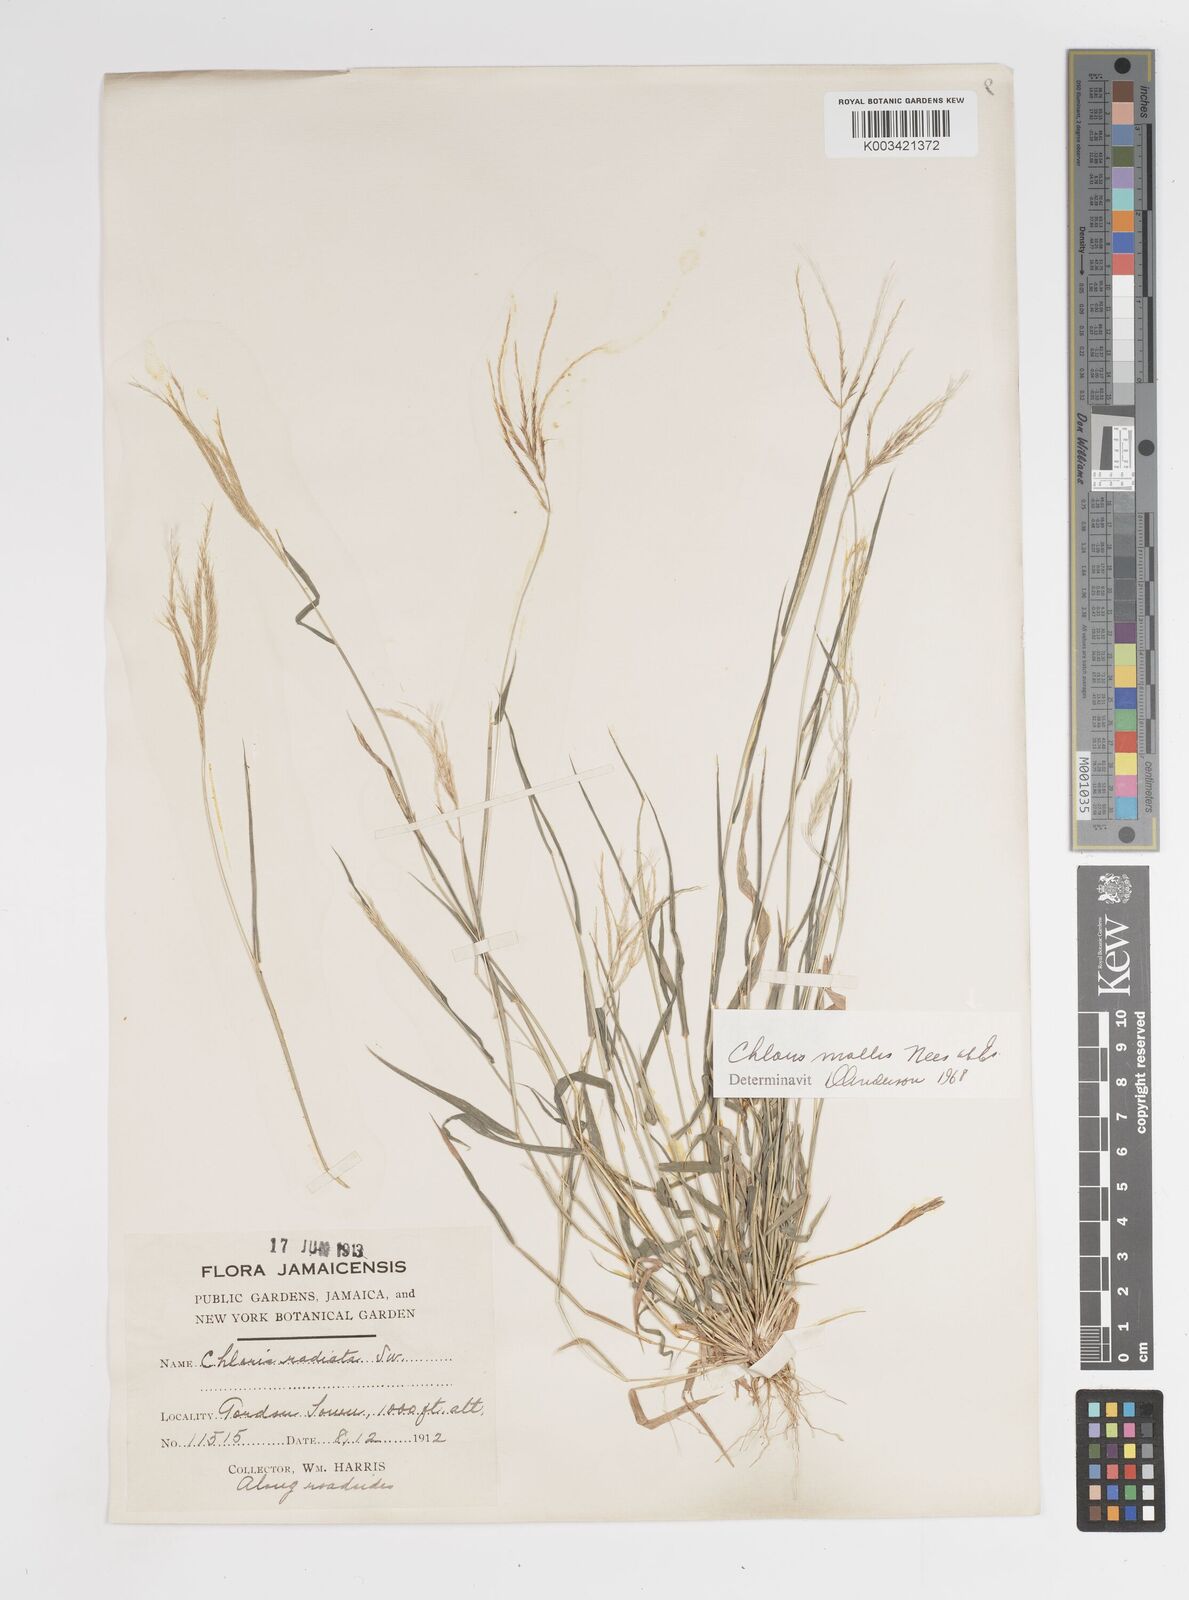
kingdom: Plantae
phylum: Tracheophyta
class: Liliopsida
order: Poales
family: Poaceae
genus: Leptochloa
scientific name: Leptochloa anisopoda
